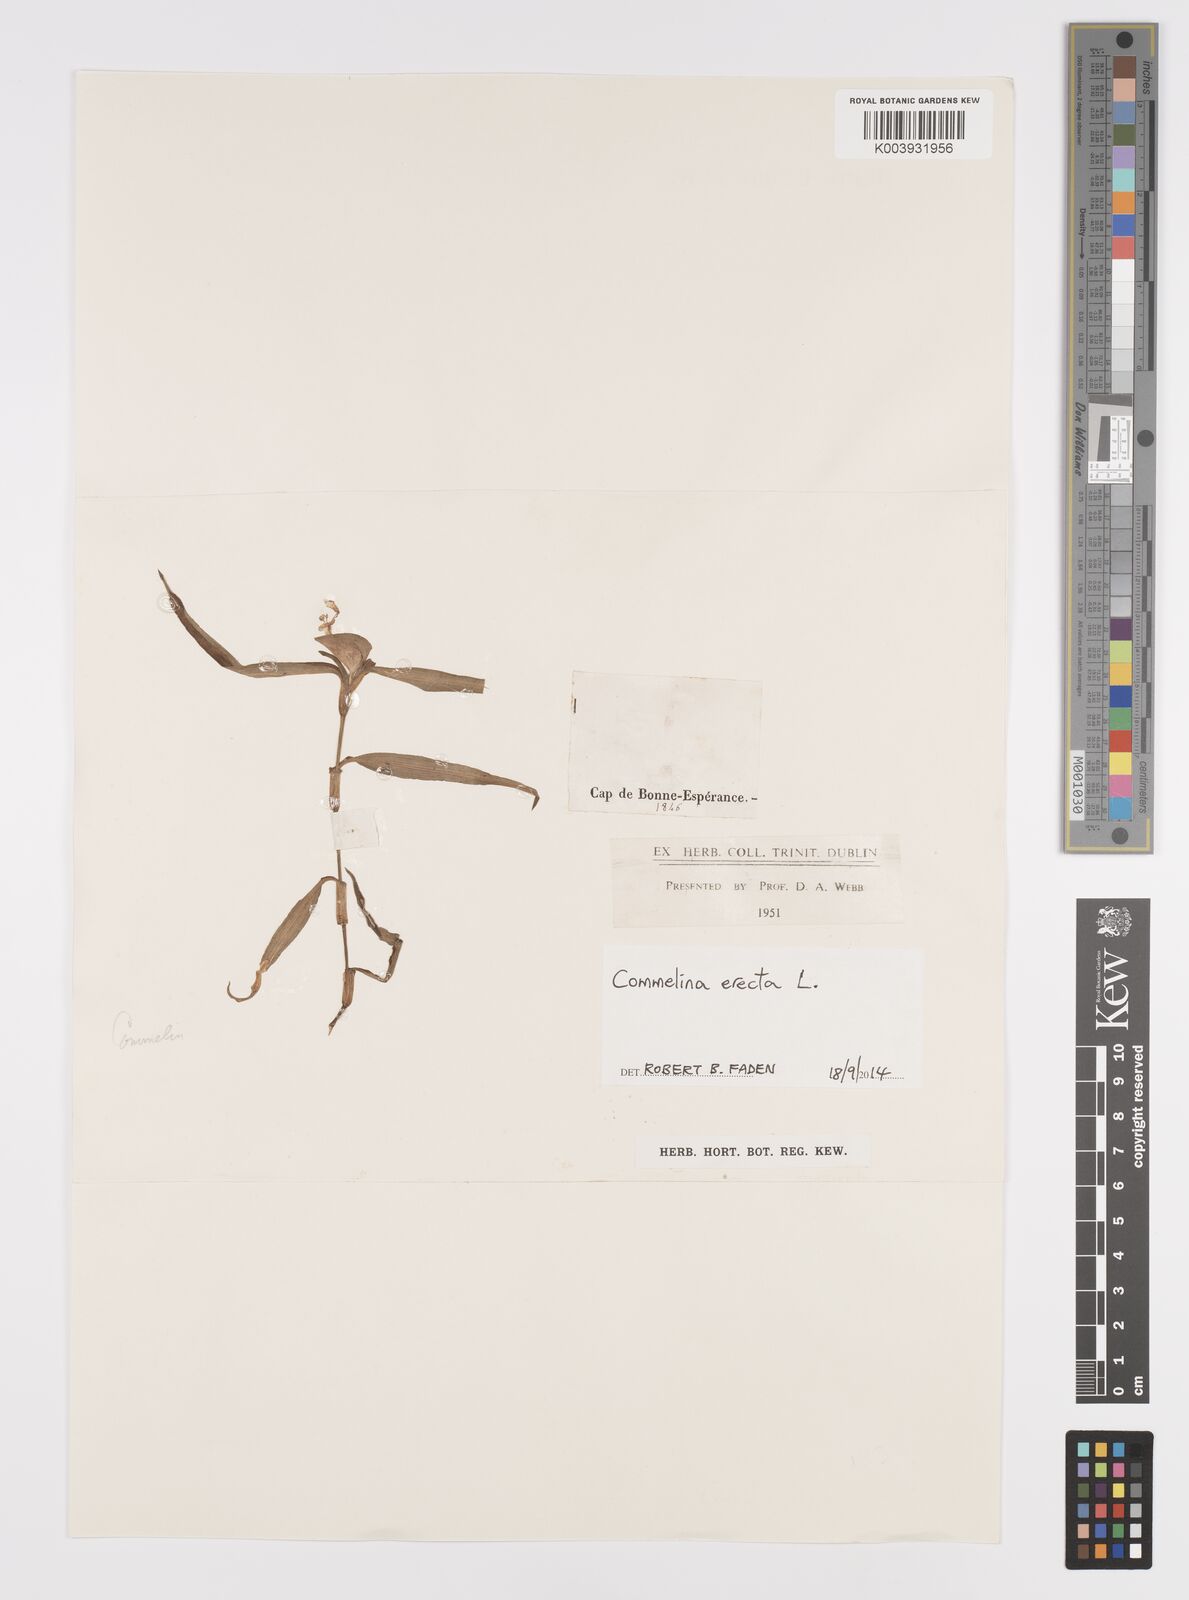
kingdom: Plantae
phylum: Tracheophyta
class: Liliopsida
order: Commelinales
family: Commelinaceae
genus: Commelina
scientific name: Commelina erecta
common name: Blousel blommetjie
